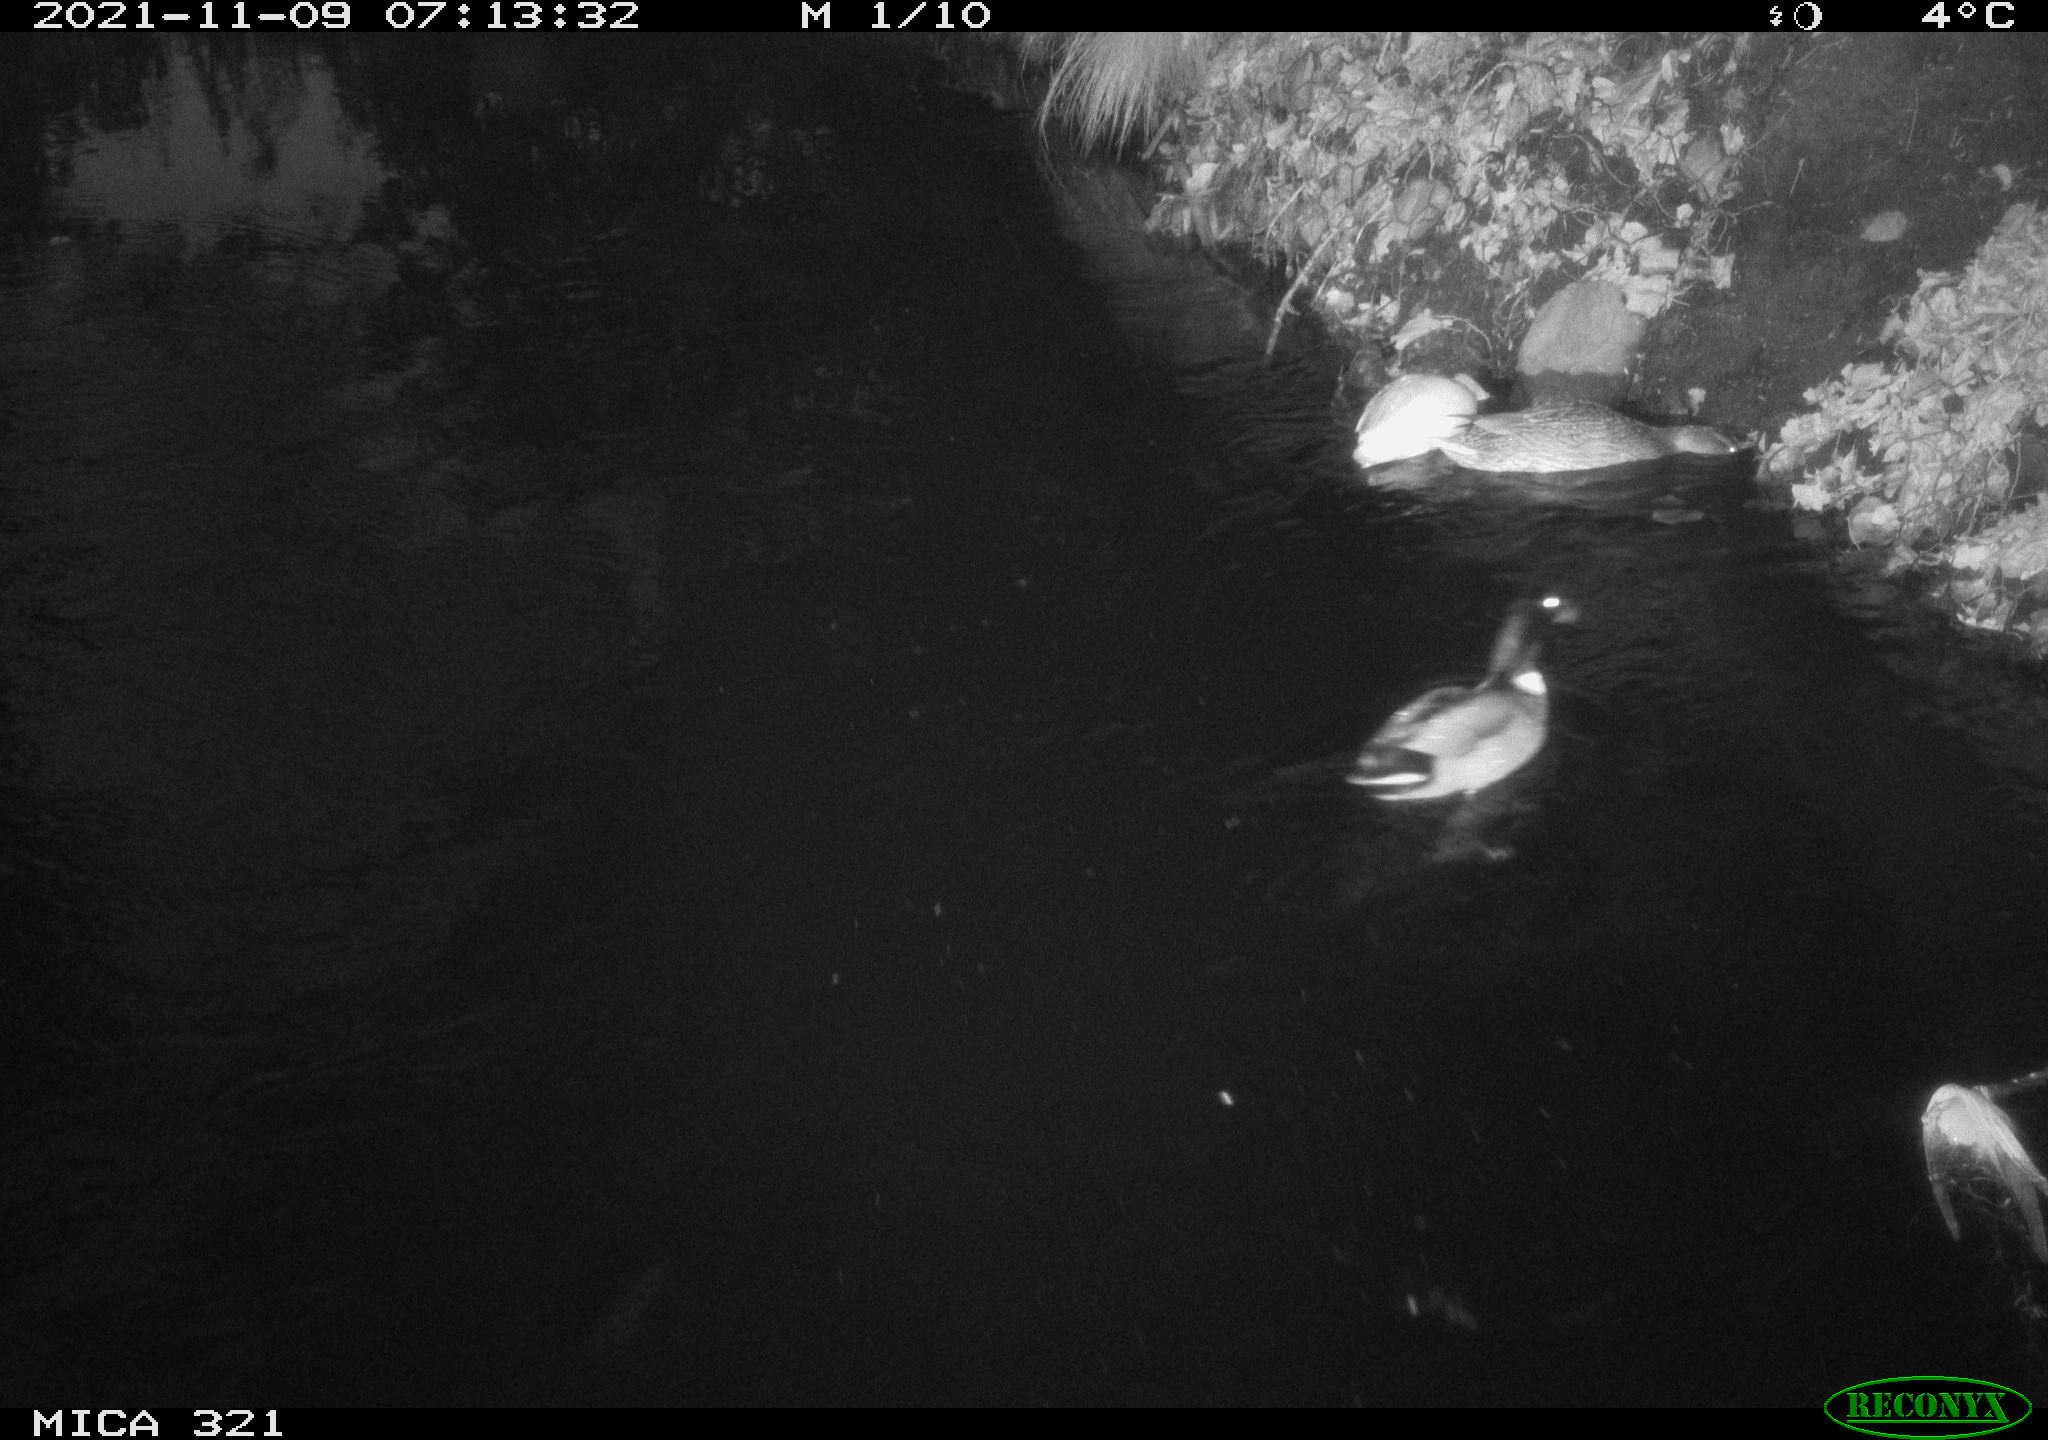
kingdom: Animalia
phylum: Chordata
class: Aves
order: Anseriformes
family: Anatidae
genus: Anas
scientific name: Anas platyrhynchos
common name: Mallard
